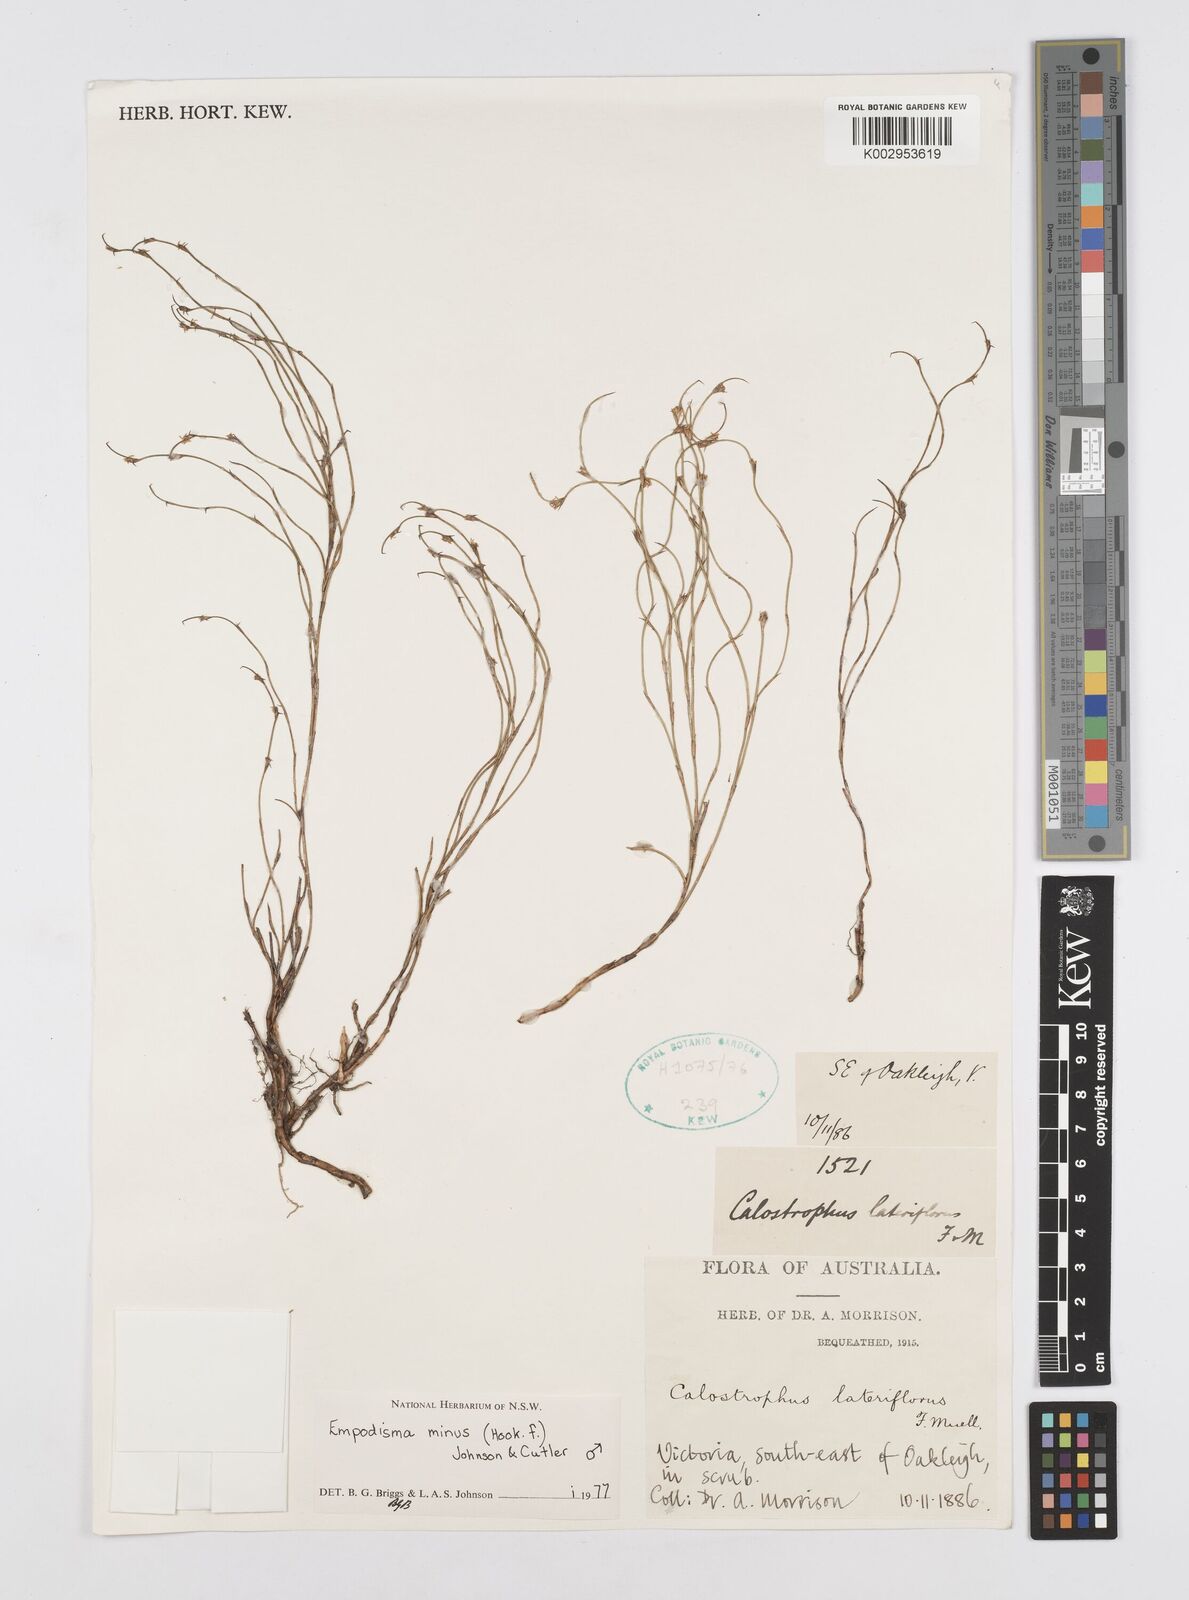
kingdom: Plantae
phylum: Tracheophyta
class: Liliopsida
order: Poales
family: Restionaceae
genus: Empodisma
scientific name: Empodisma minus
